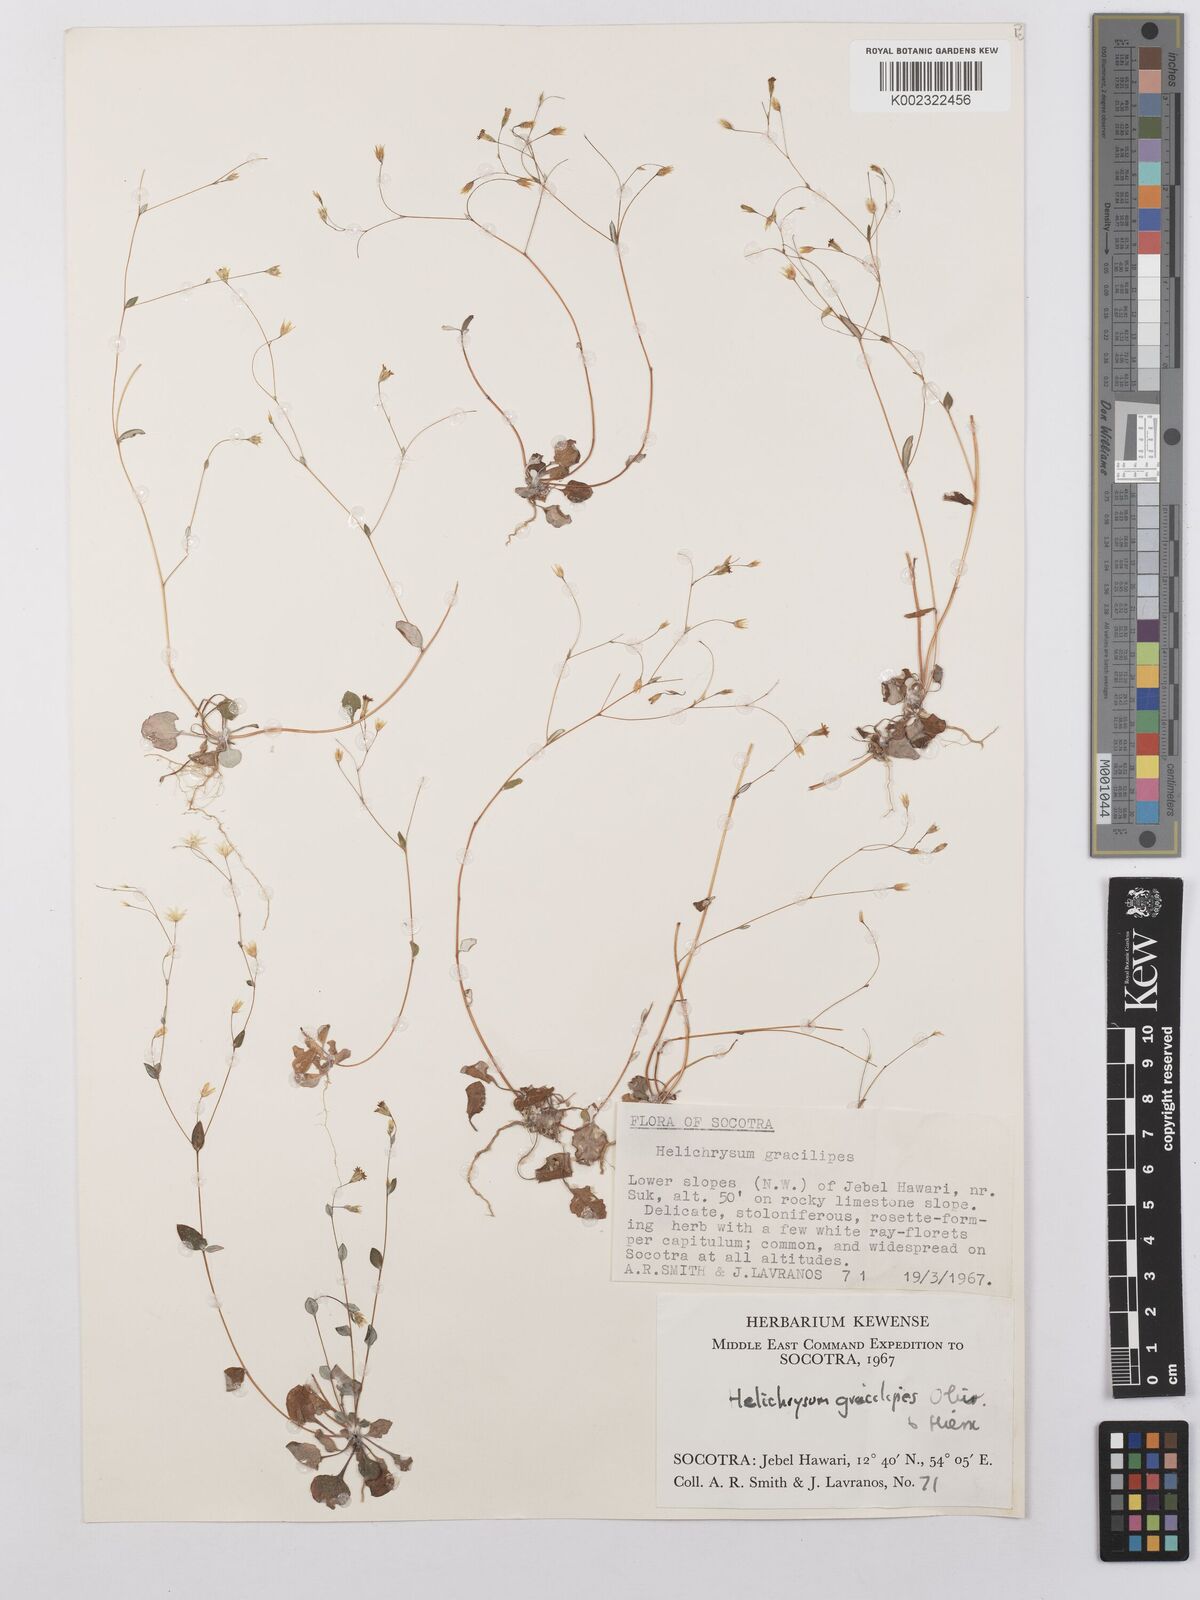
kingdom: Plantae
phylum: Tracheophyta
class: Magnoliopsida
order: Asterales
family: Asteraceae
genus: Libinhania
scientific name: Libinhania gracilipes
